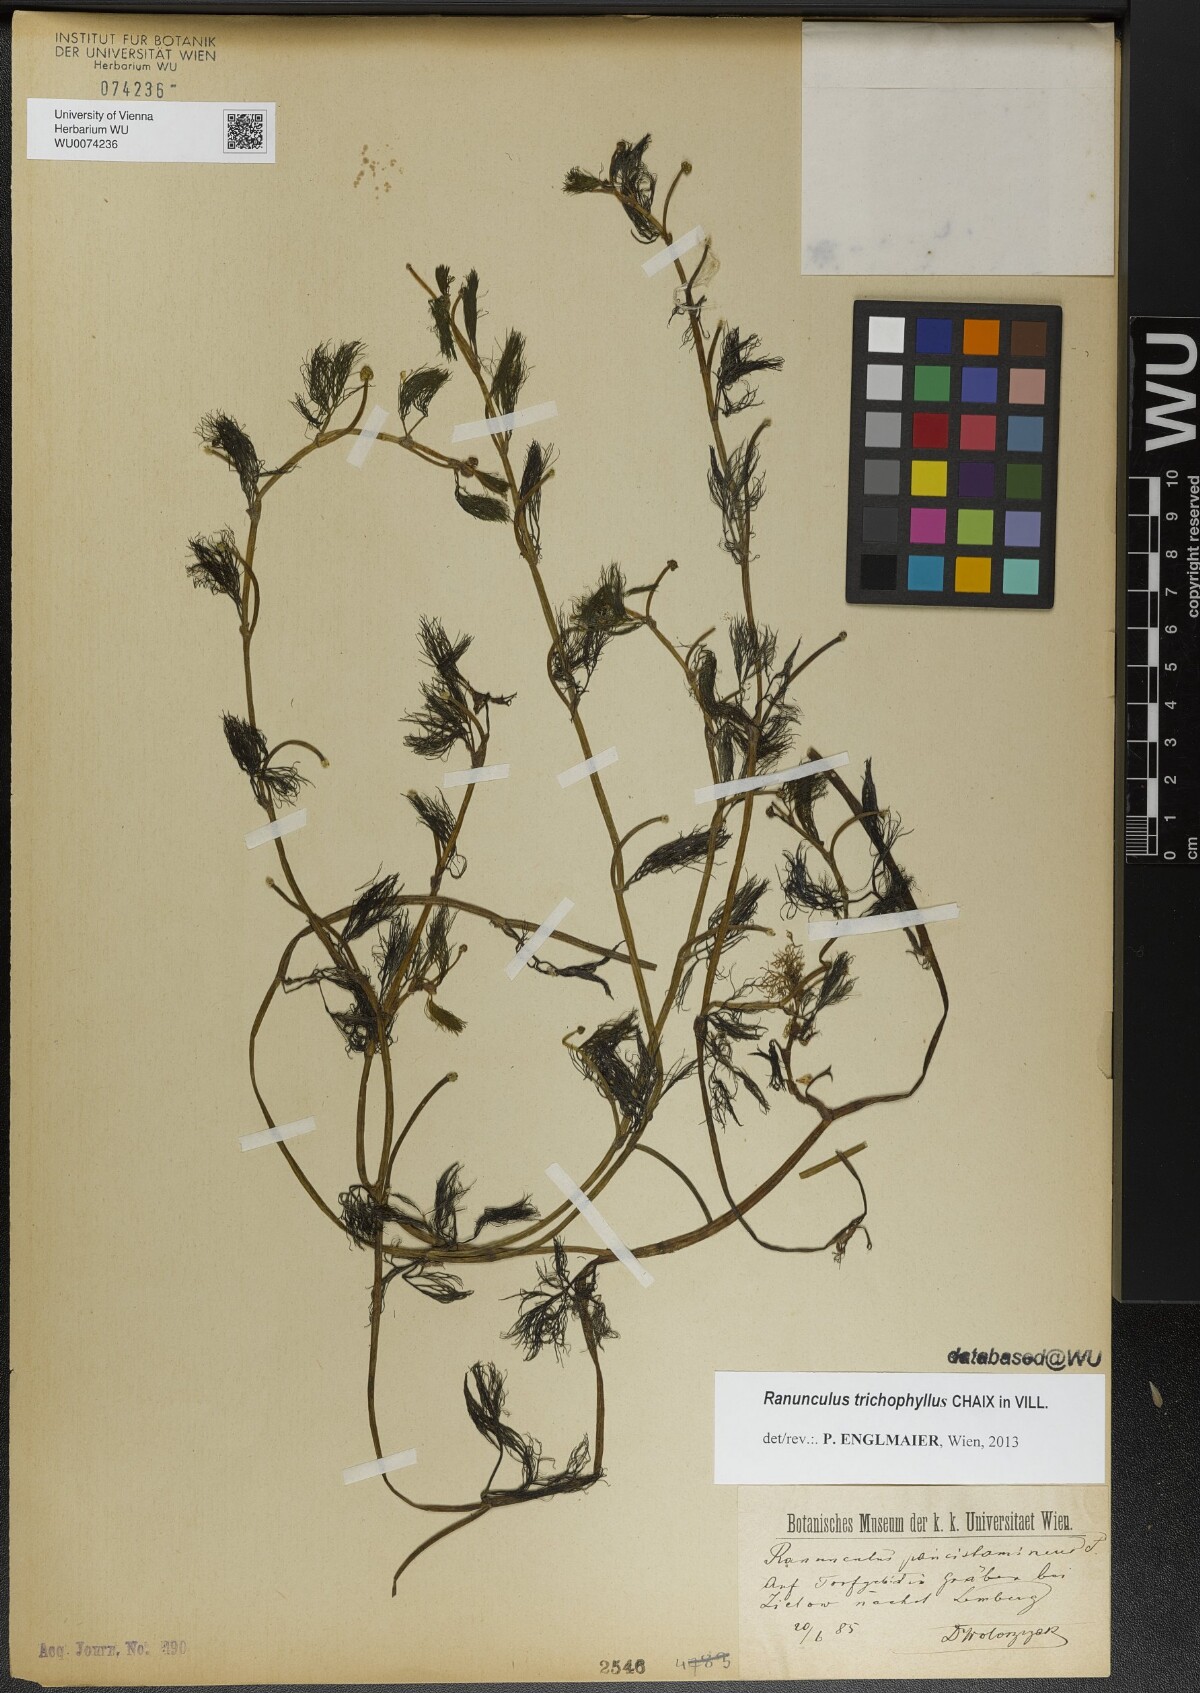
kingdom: Plantae
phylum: Tracheophyta
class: Magnoliopsida
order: Ranunculales
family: Ranunculaceae
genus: Ranunculus
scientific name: Ranunculus trichophyllus
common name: Thread-leaved water-crowfoot
